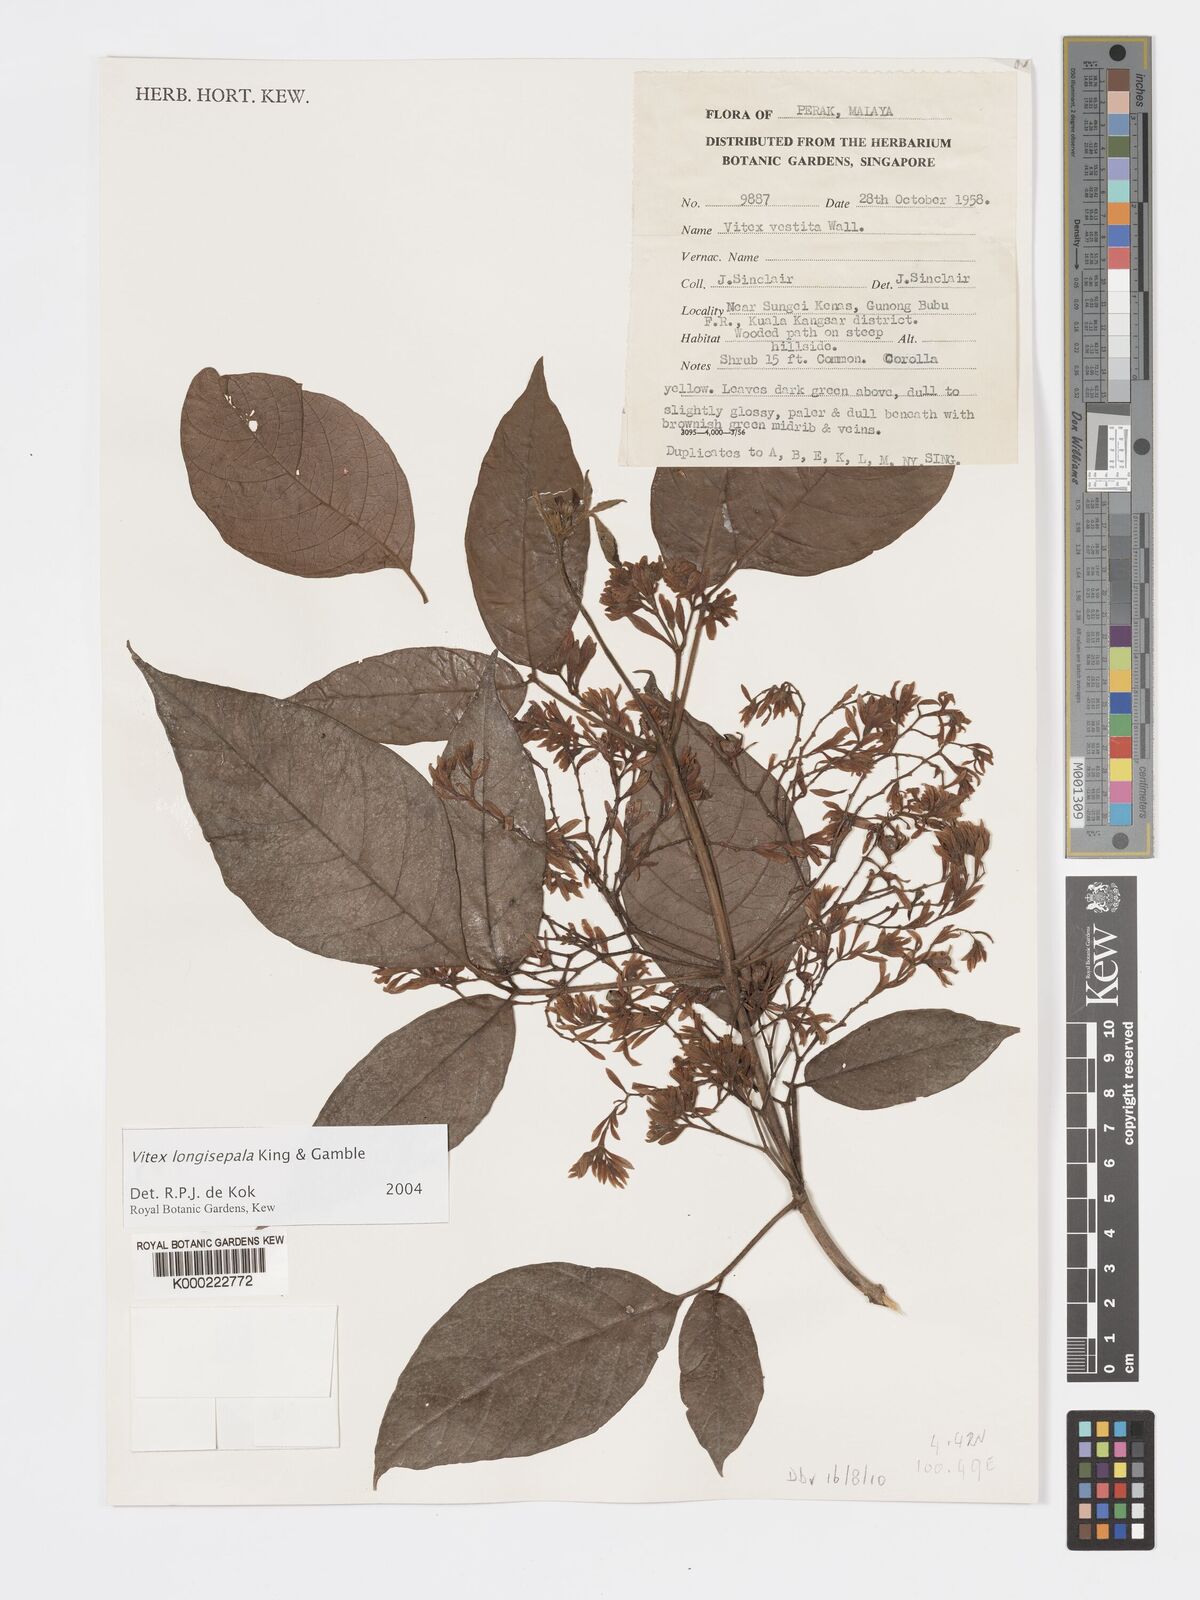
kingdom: Plantae
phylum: Tracheophyta
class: Magnoliopsida
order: Lamiales
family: Lamiaceae
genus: Vitex
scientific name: Vitex longisepala
